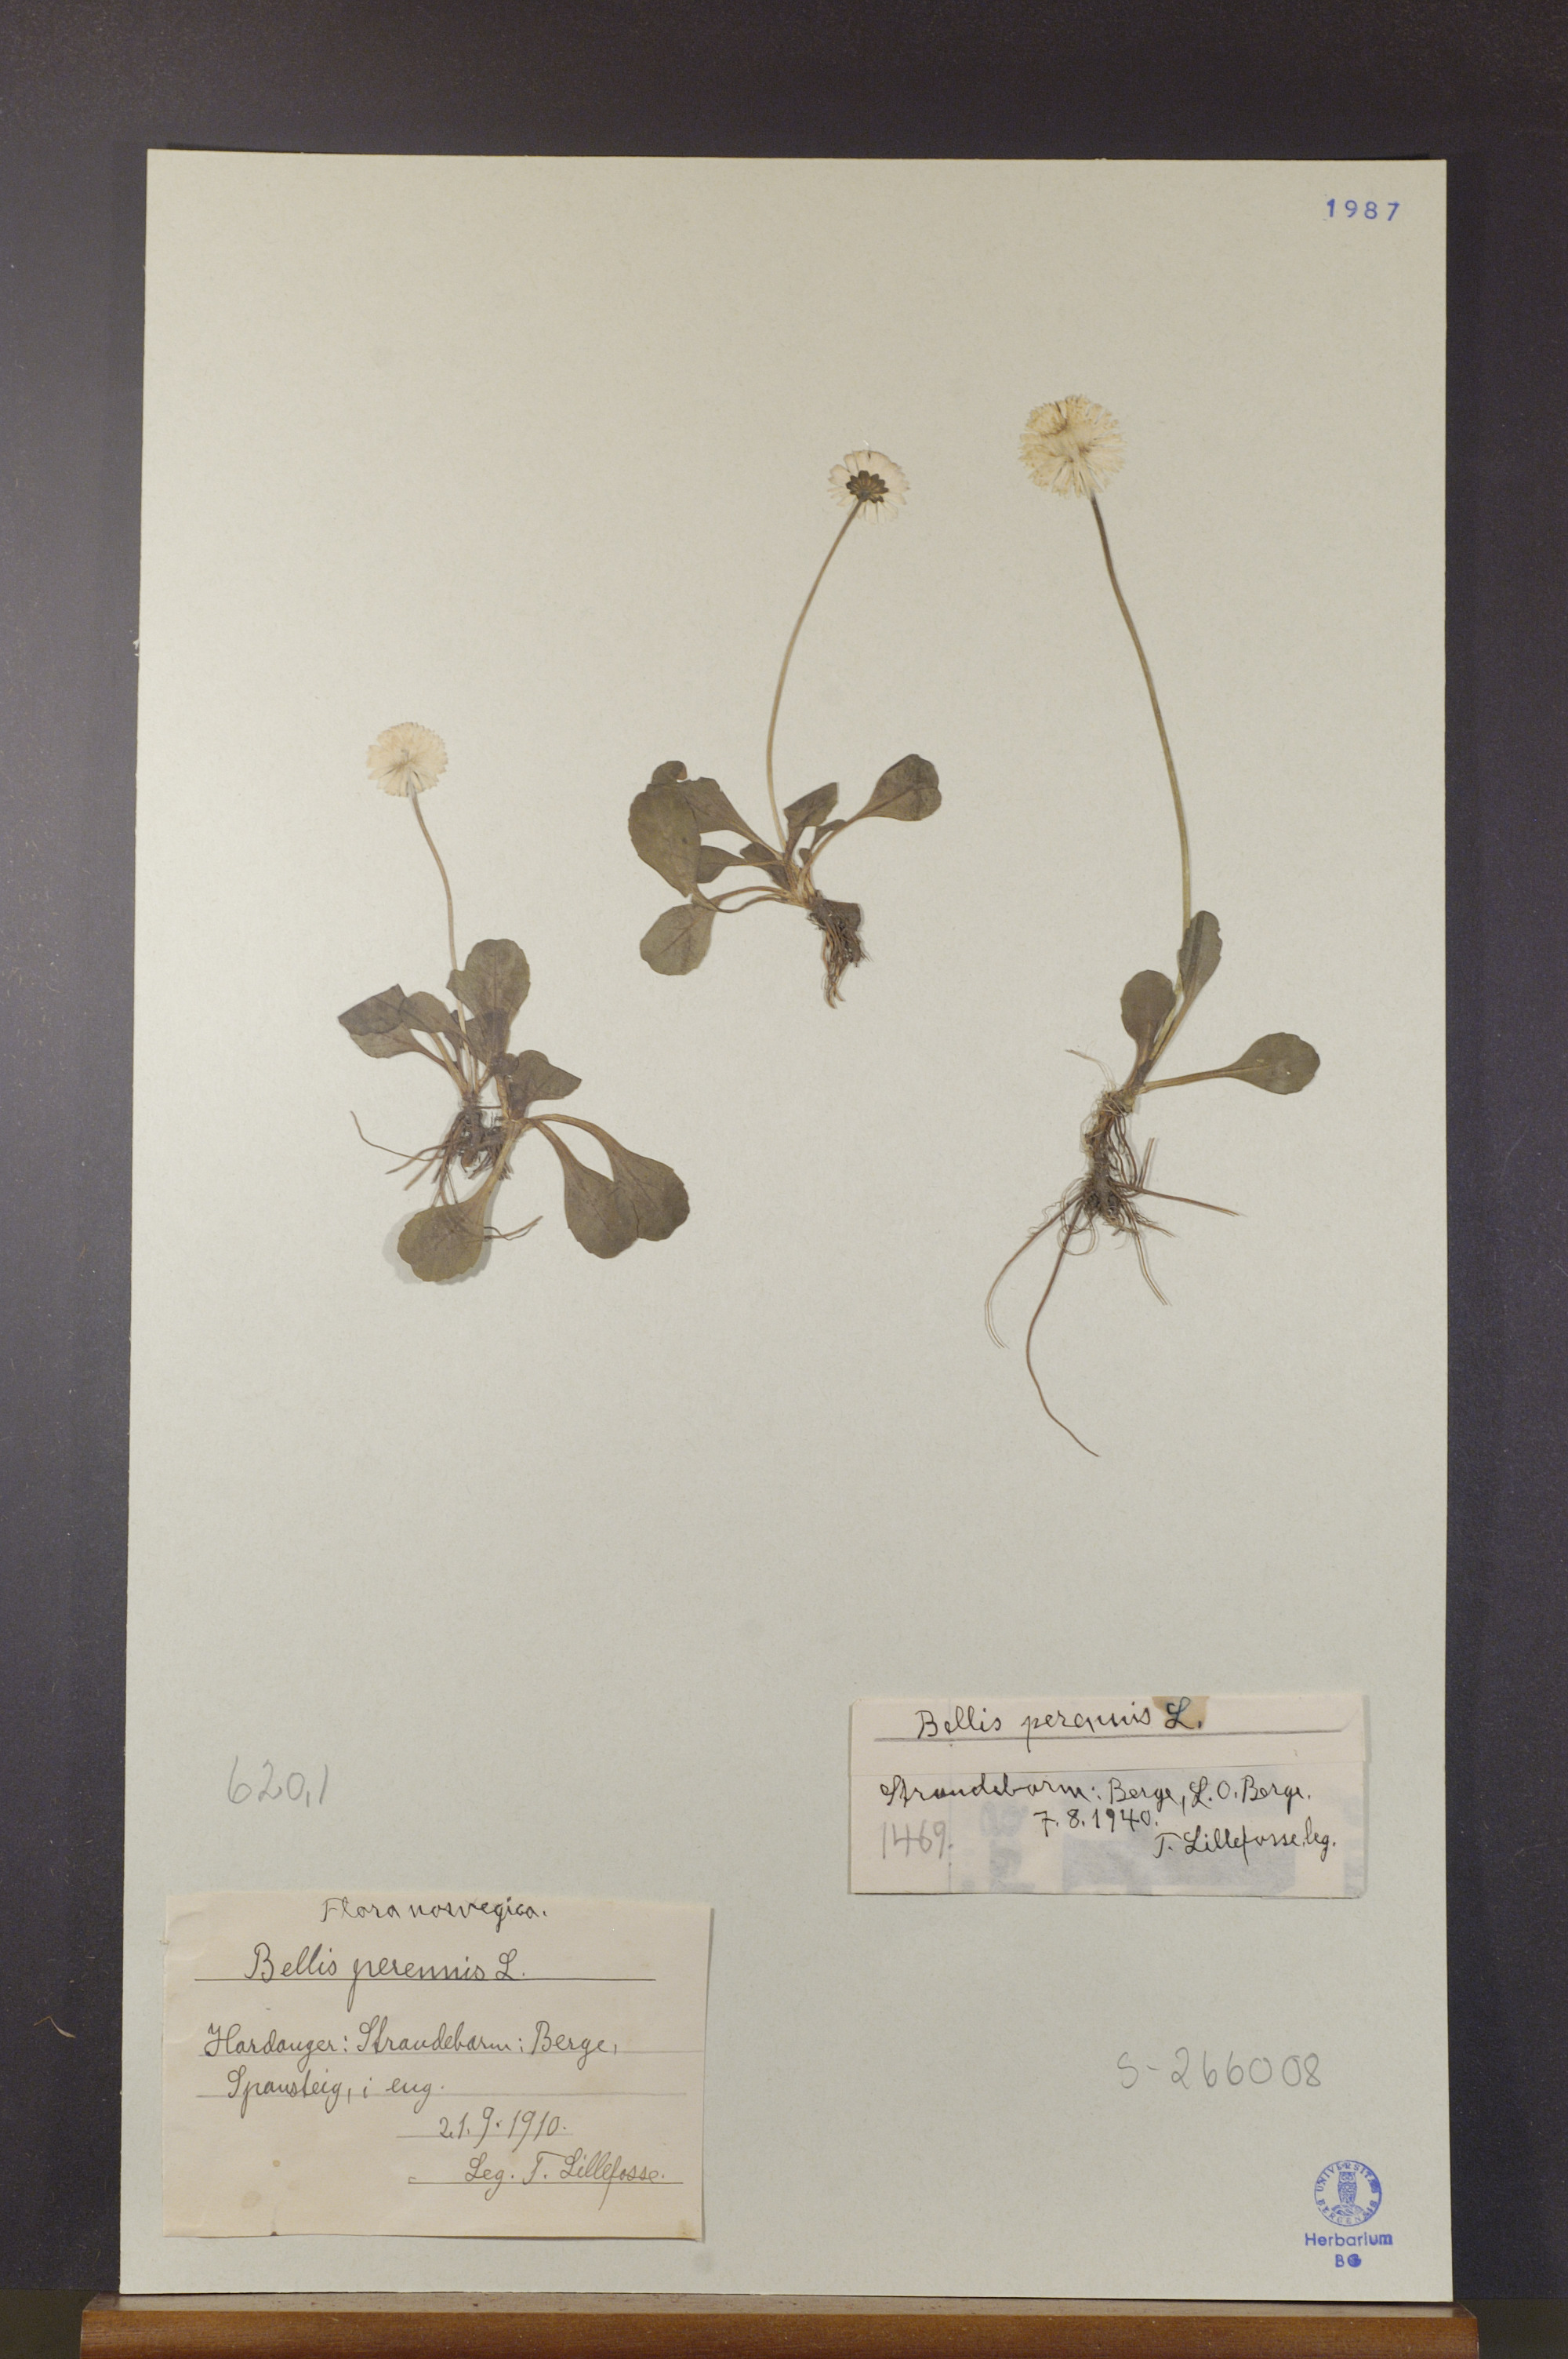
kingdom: Plantae
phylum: Tracheophyta
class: Magnoliopsida
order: Asterales
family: Asteraceae
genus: Bellis
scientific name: Bellis perennis
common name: Lawndaisy
